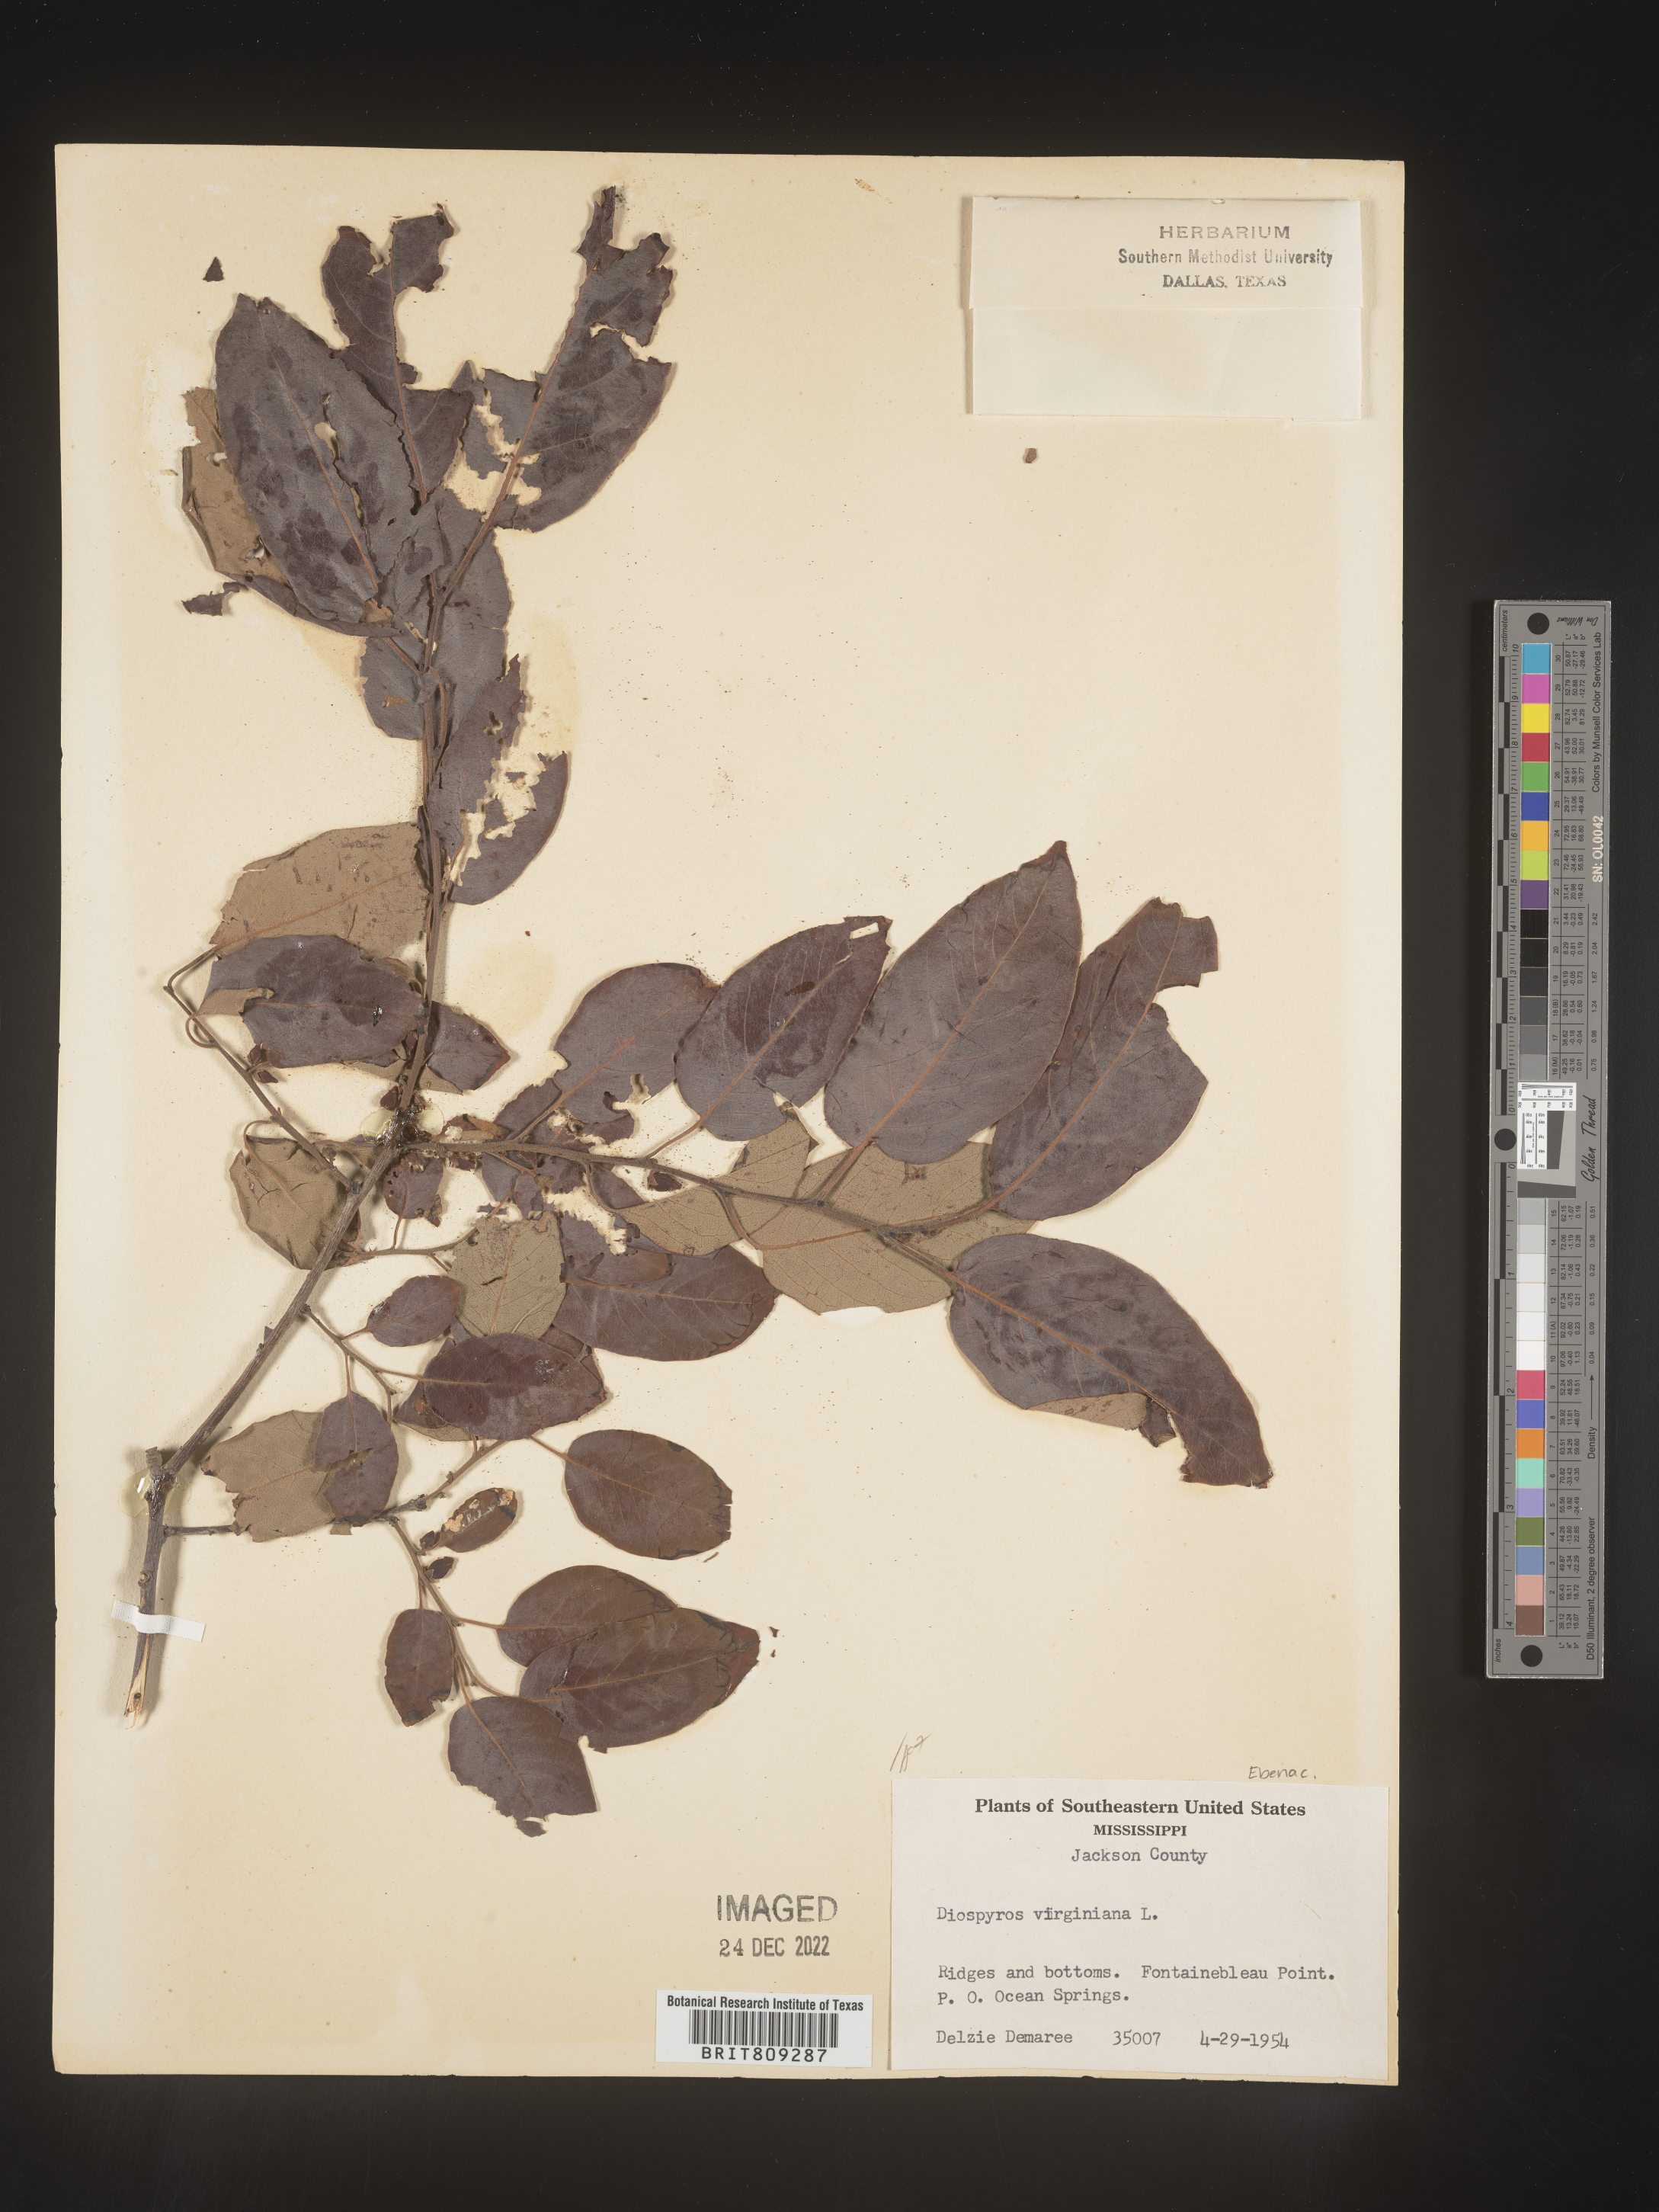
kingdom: Plantae
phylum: Tracheophyta
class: Magnoliopsida
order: Ericales
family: Ebenaceae
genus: Diospyros
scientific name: Diospyros virginiana
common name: Persimmon
